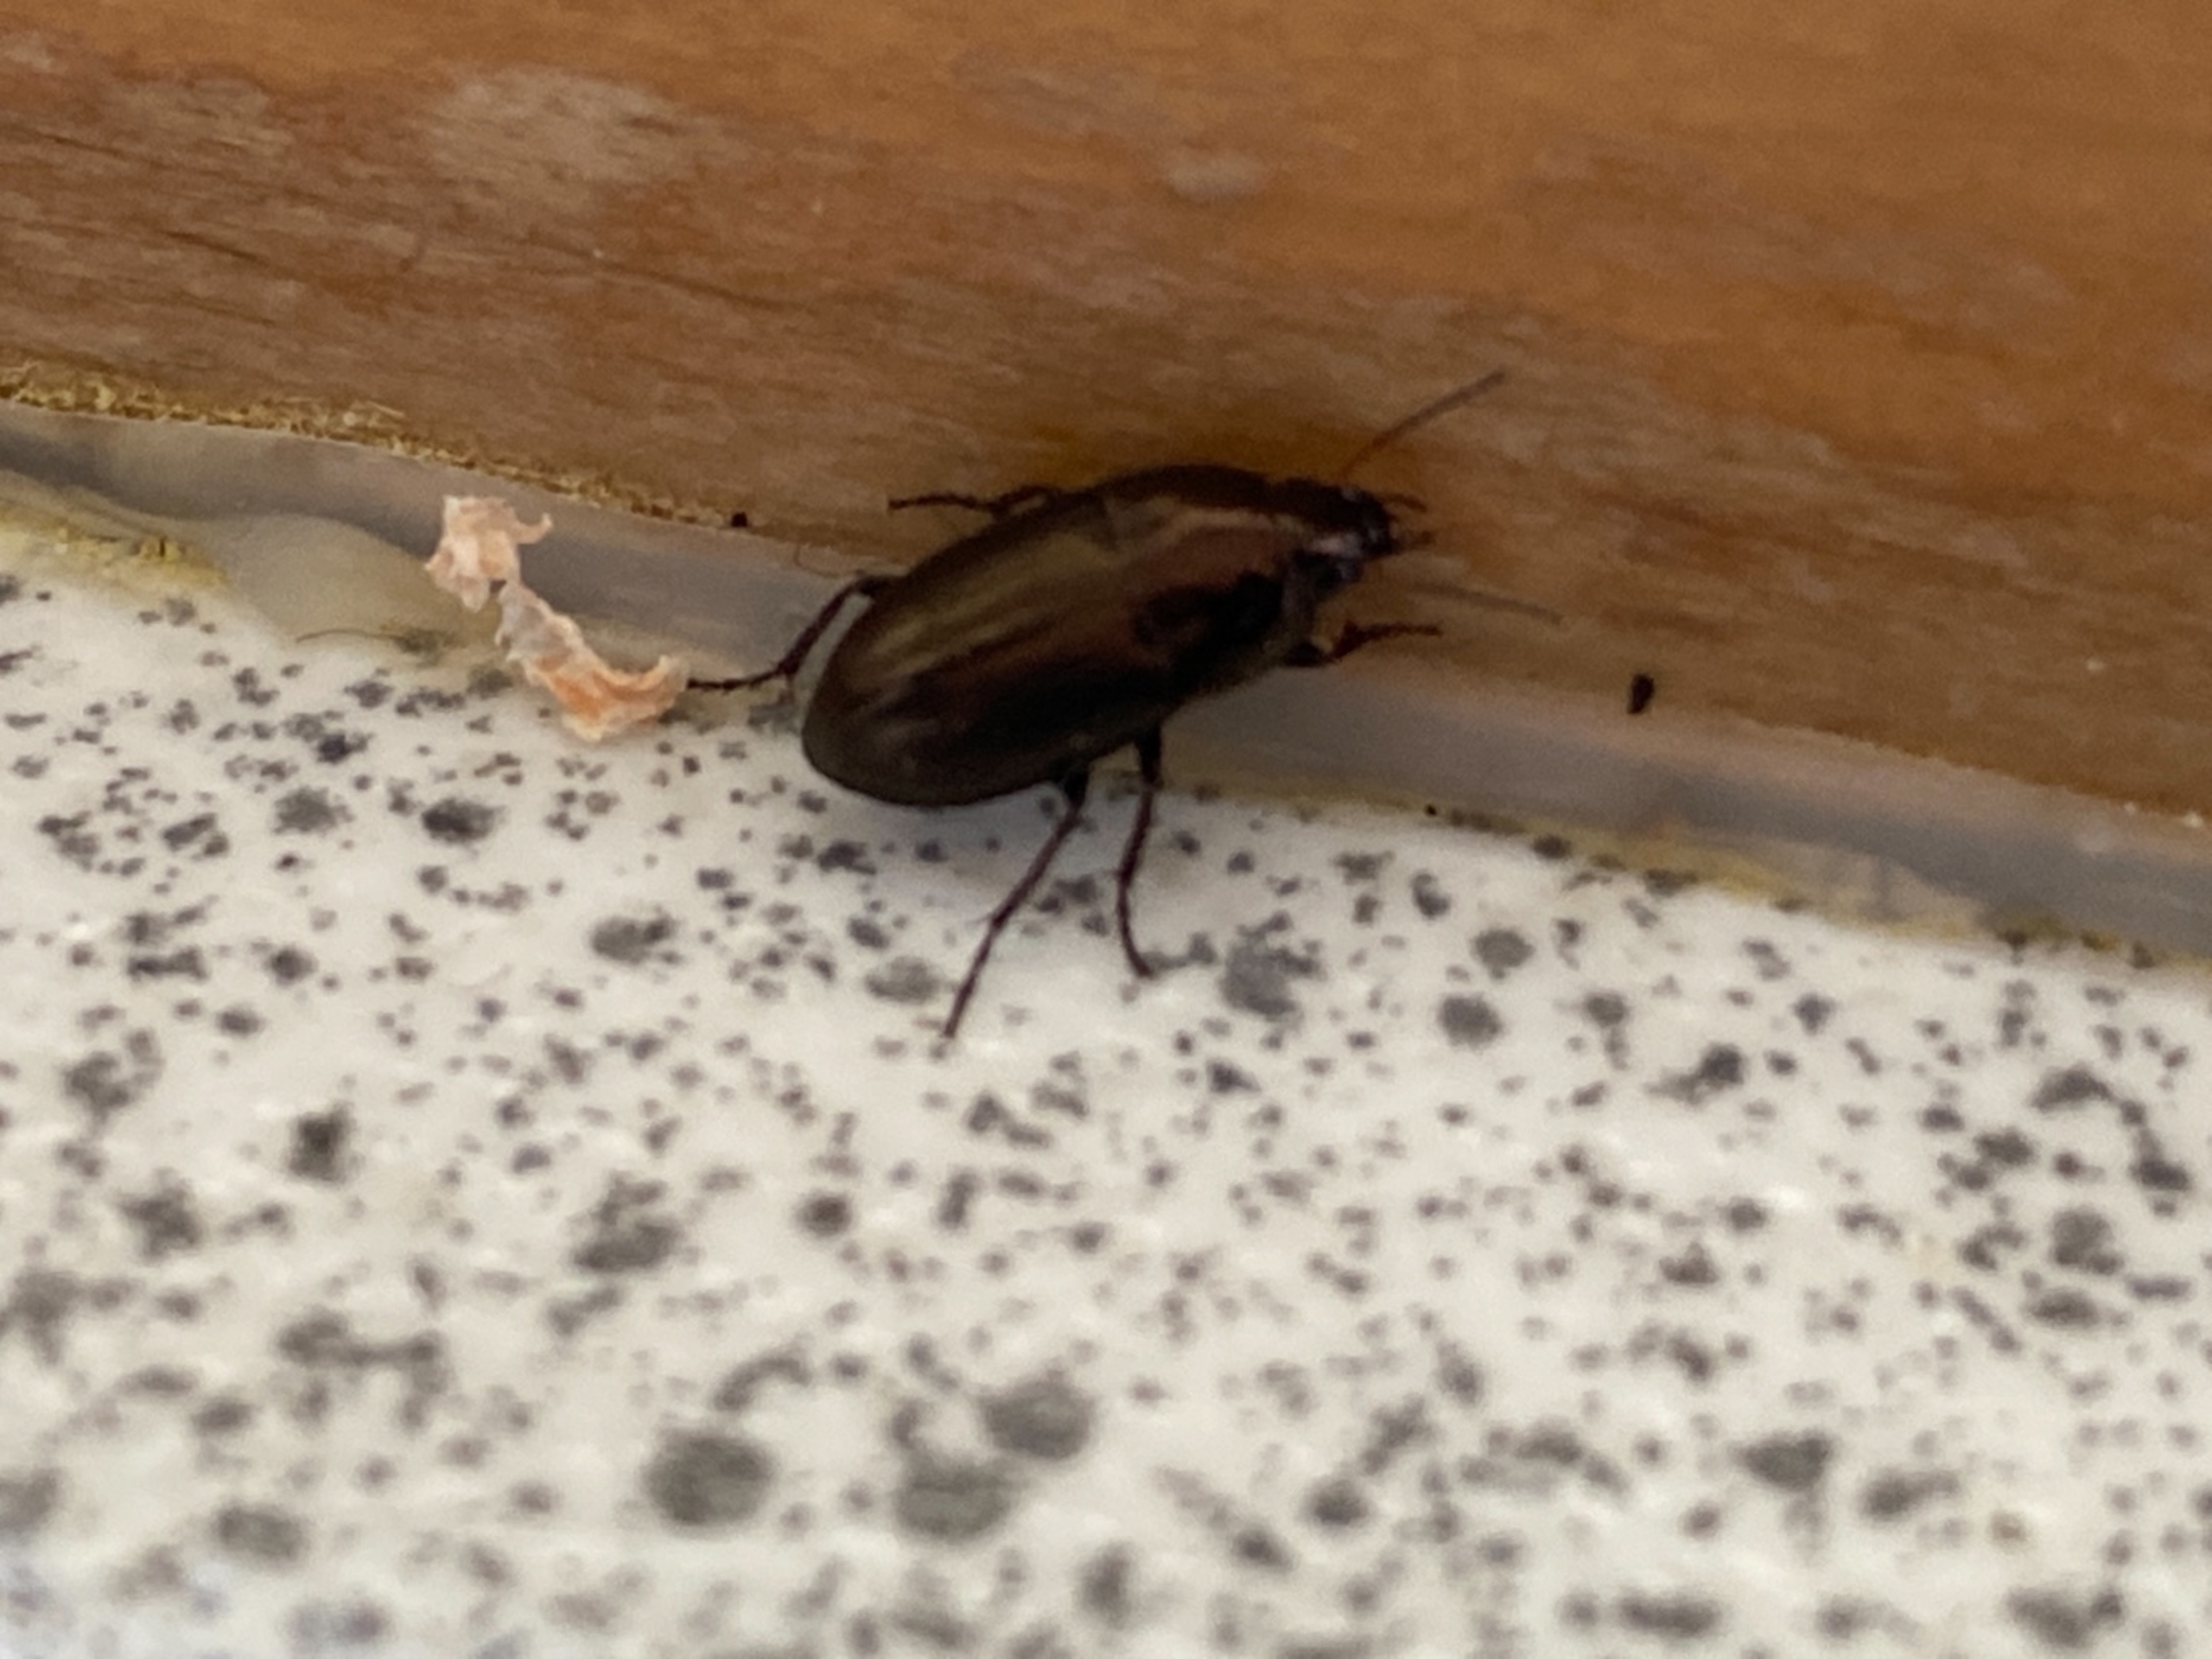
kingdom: Animalia
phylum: Arthropoda
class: Insecta
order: Coleoptera
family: Carabidae
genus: Amara
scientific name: Amara
